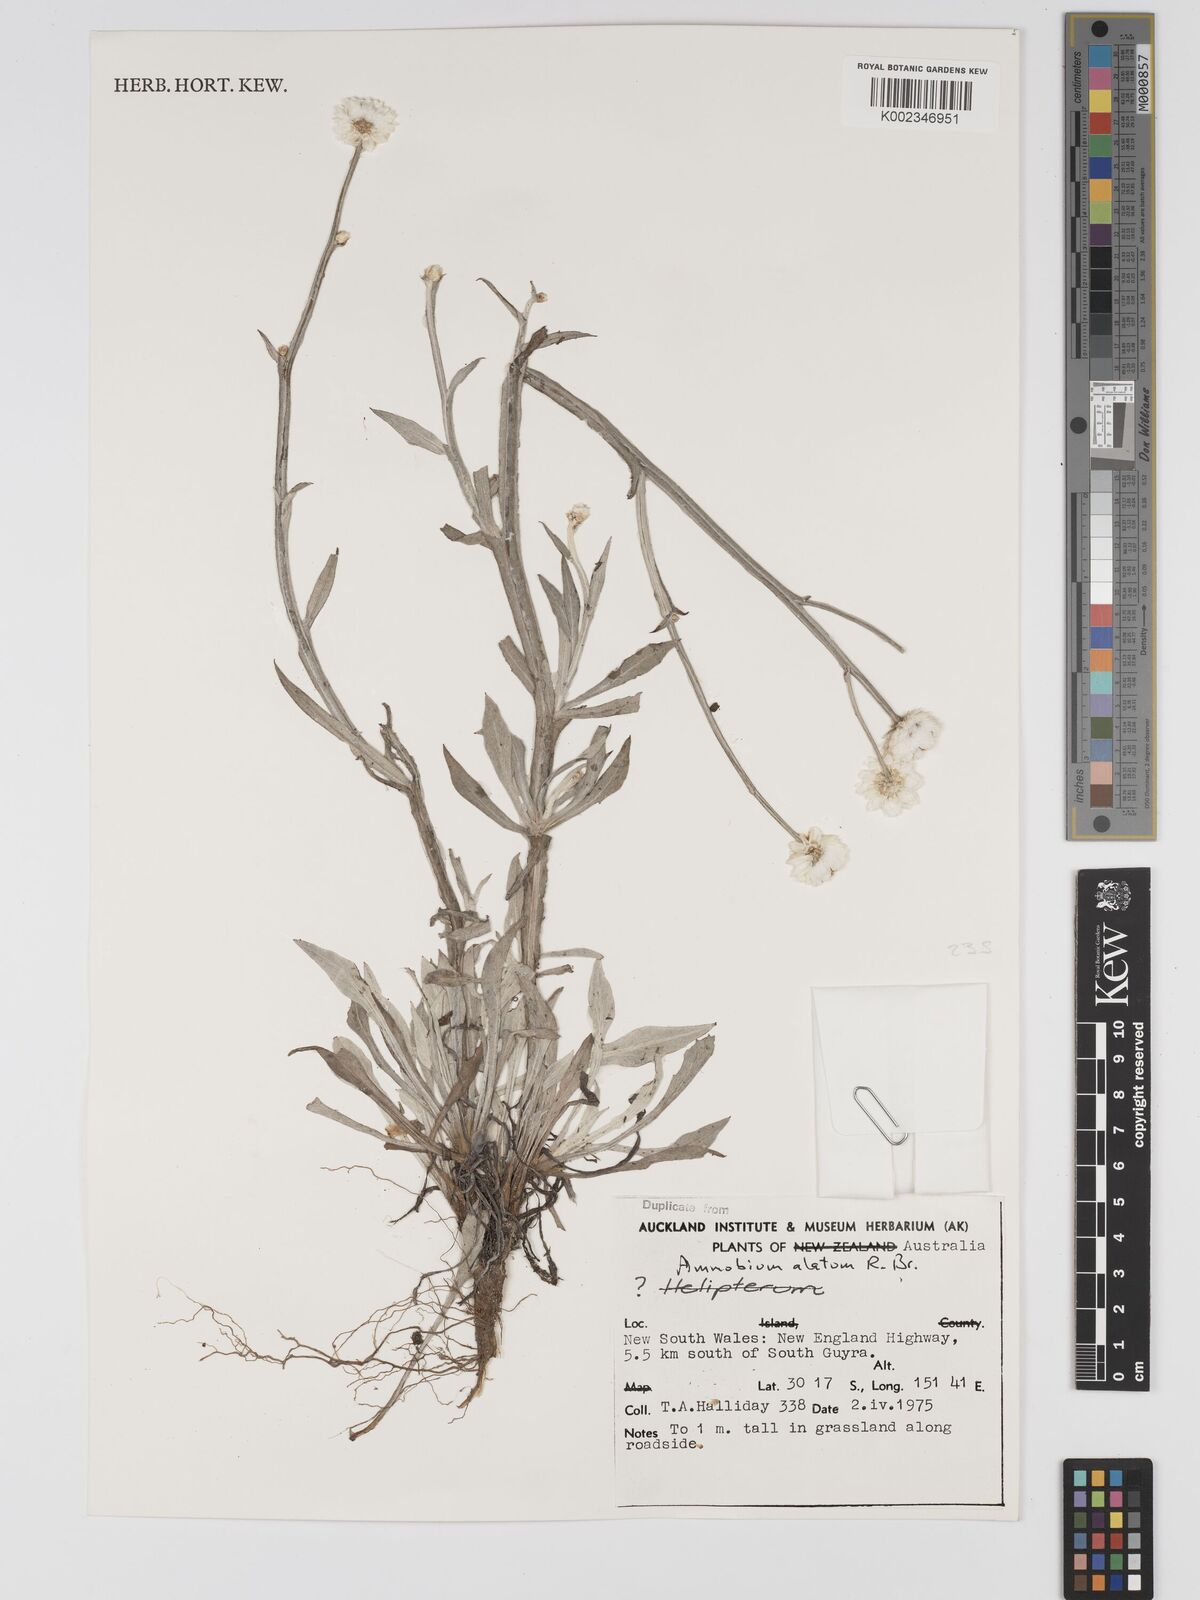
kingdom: Plantae
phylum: Tracheophyta
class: Magnoliopsida
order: Asterales
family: Asteraceae
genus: Ammobium
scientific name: Ammobium alatum
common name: Winged everlasting
